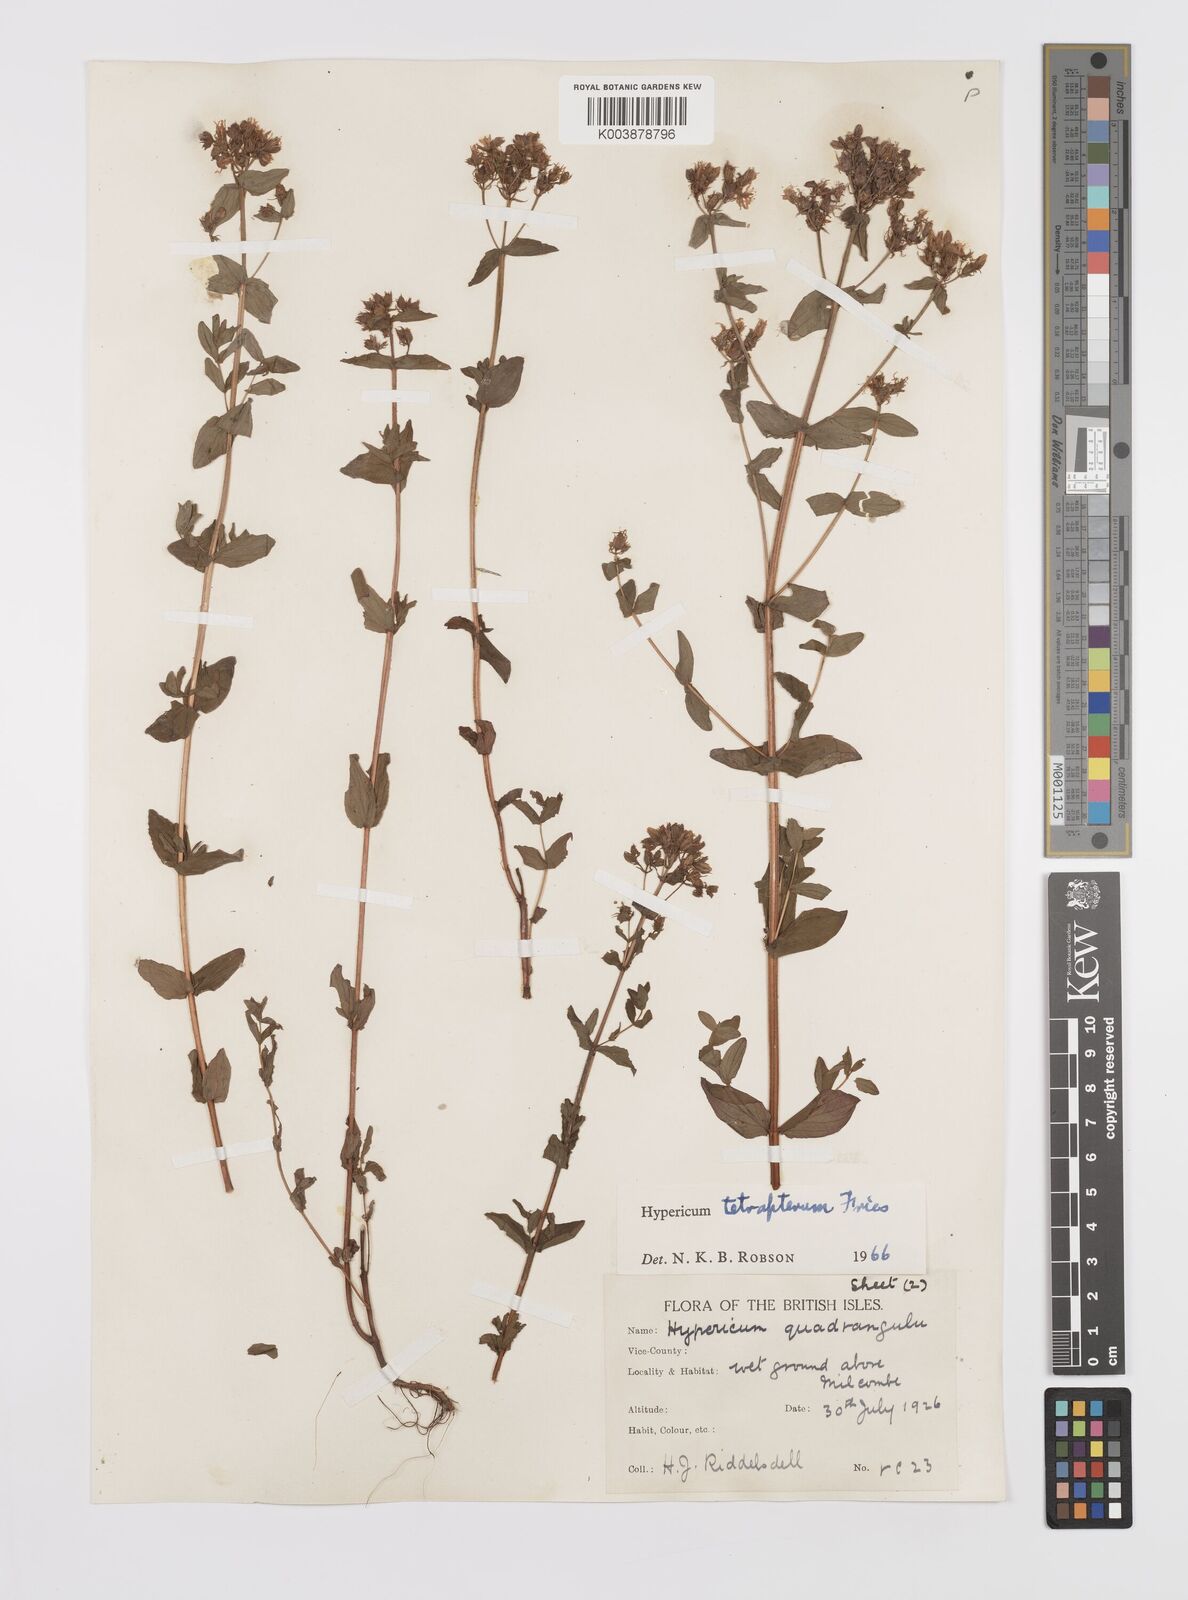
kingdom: Plantae
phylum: Tracheophyta
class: Magnoliopsida
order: Malpighiales
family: Hypericaceae
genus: Hypericum
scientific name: Hypericum tetrapterum
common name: Square-stalked st. john's-wort
